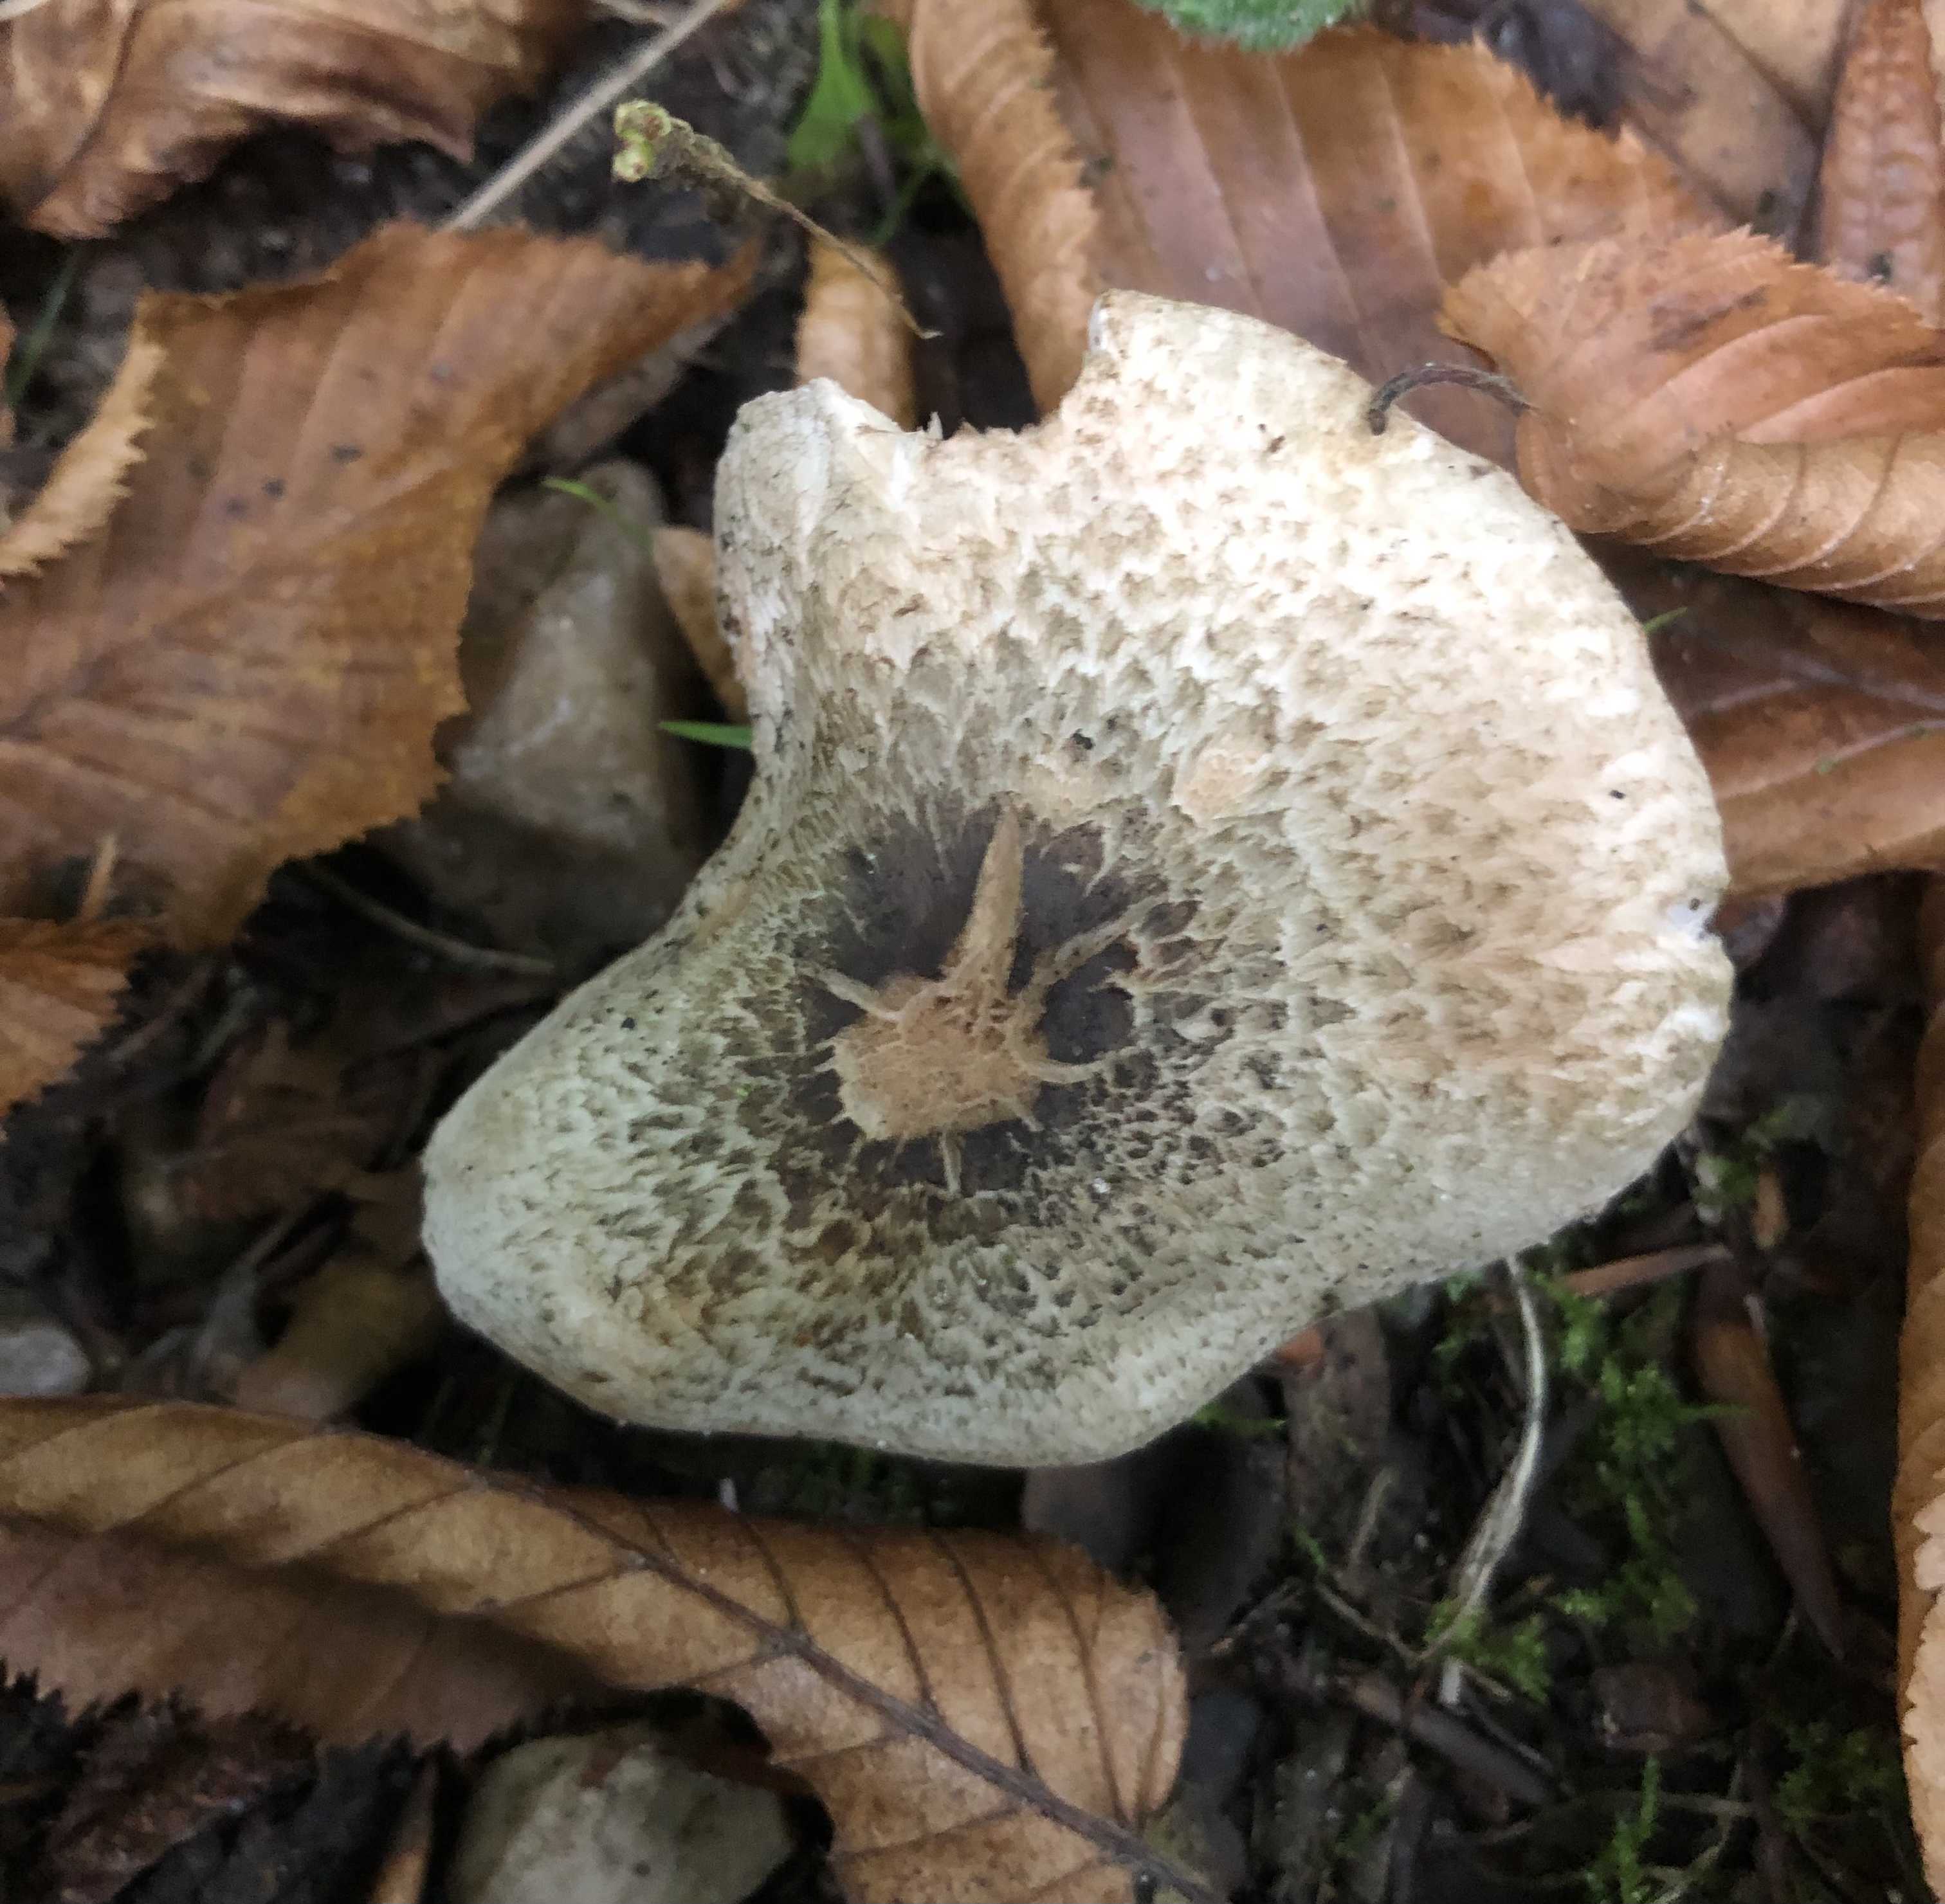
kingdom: Fungi
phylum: Basidiomycota
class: Agaricomycetes
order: Agaricales
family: Inocybaceae
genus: Inocybe
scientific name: Inocybe corydalina
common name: grønpuklet trævlhat
